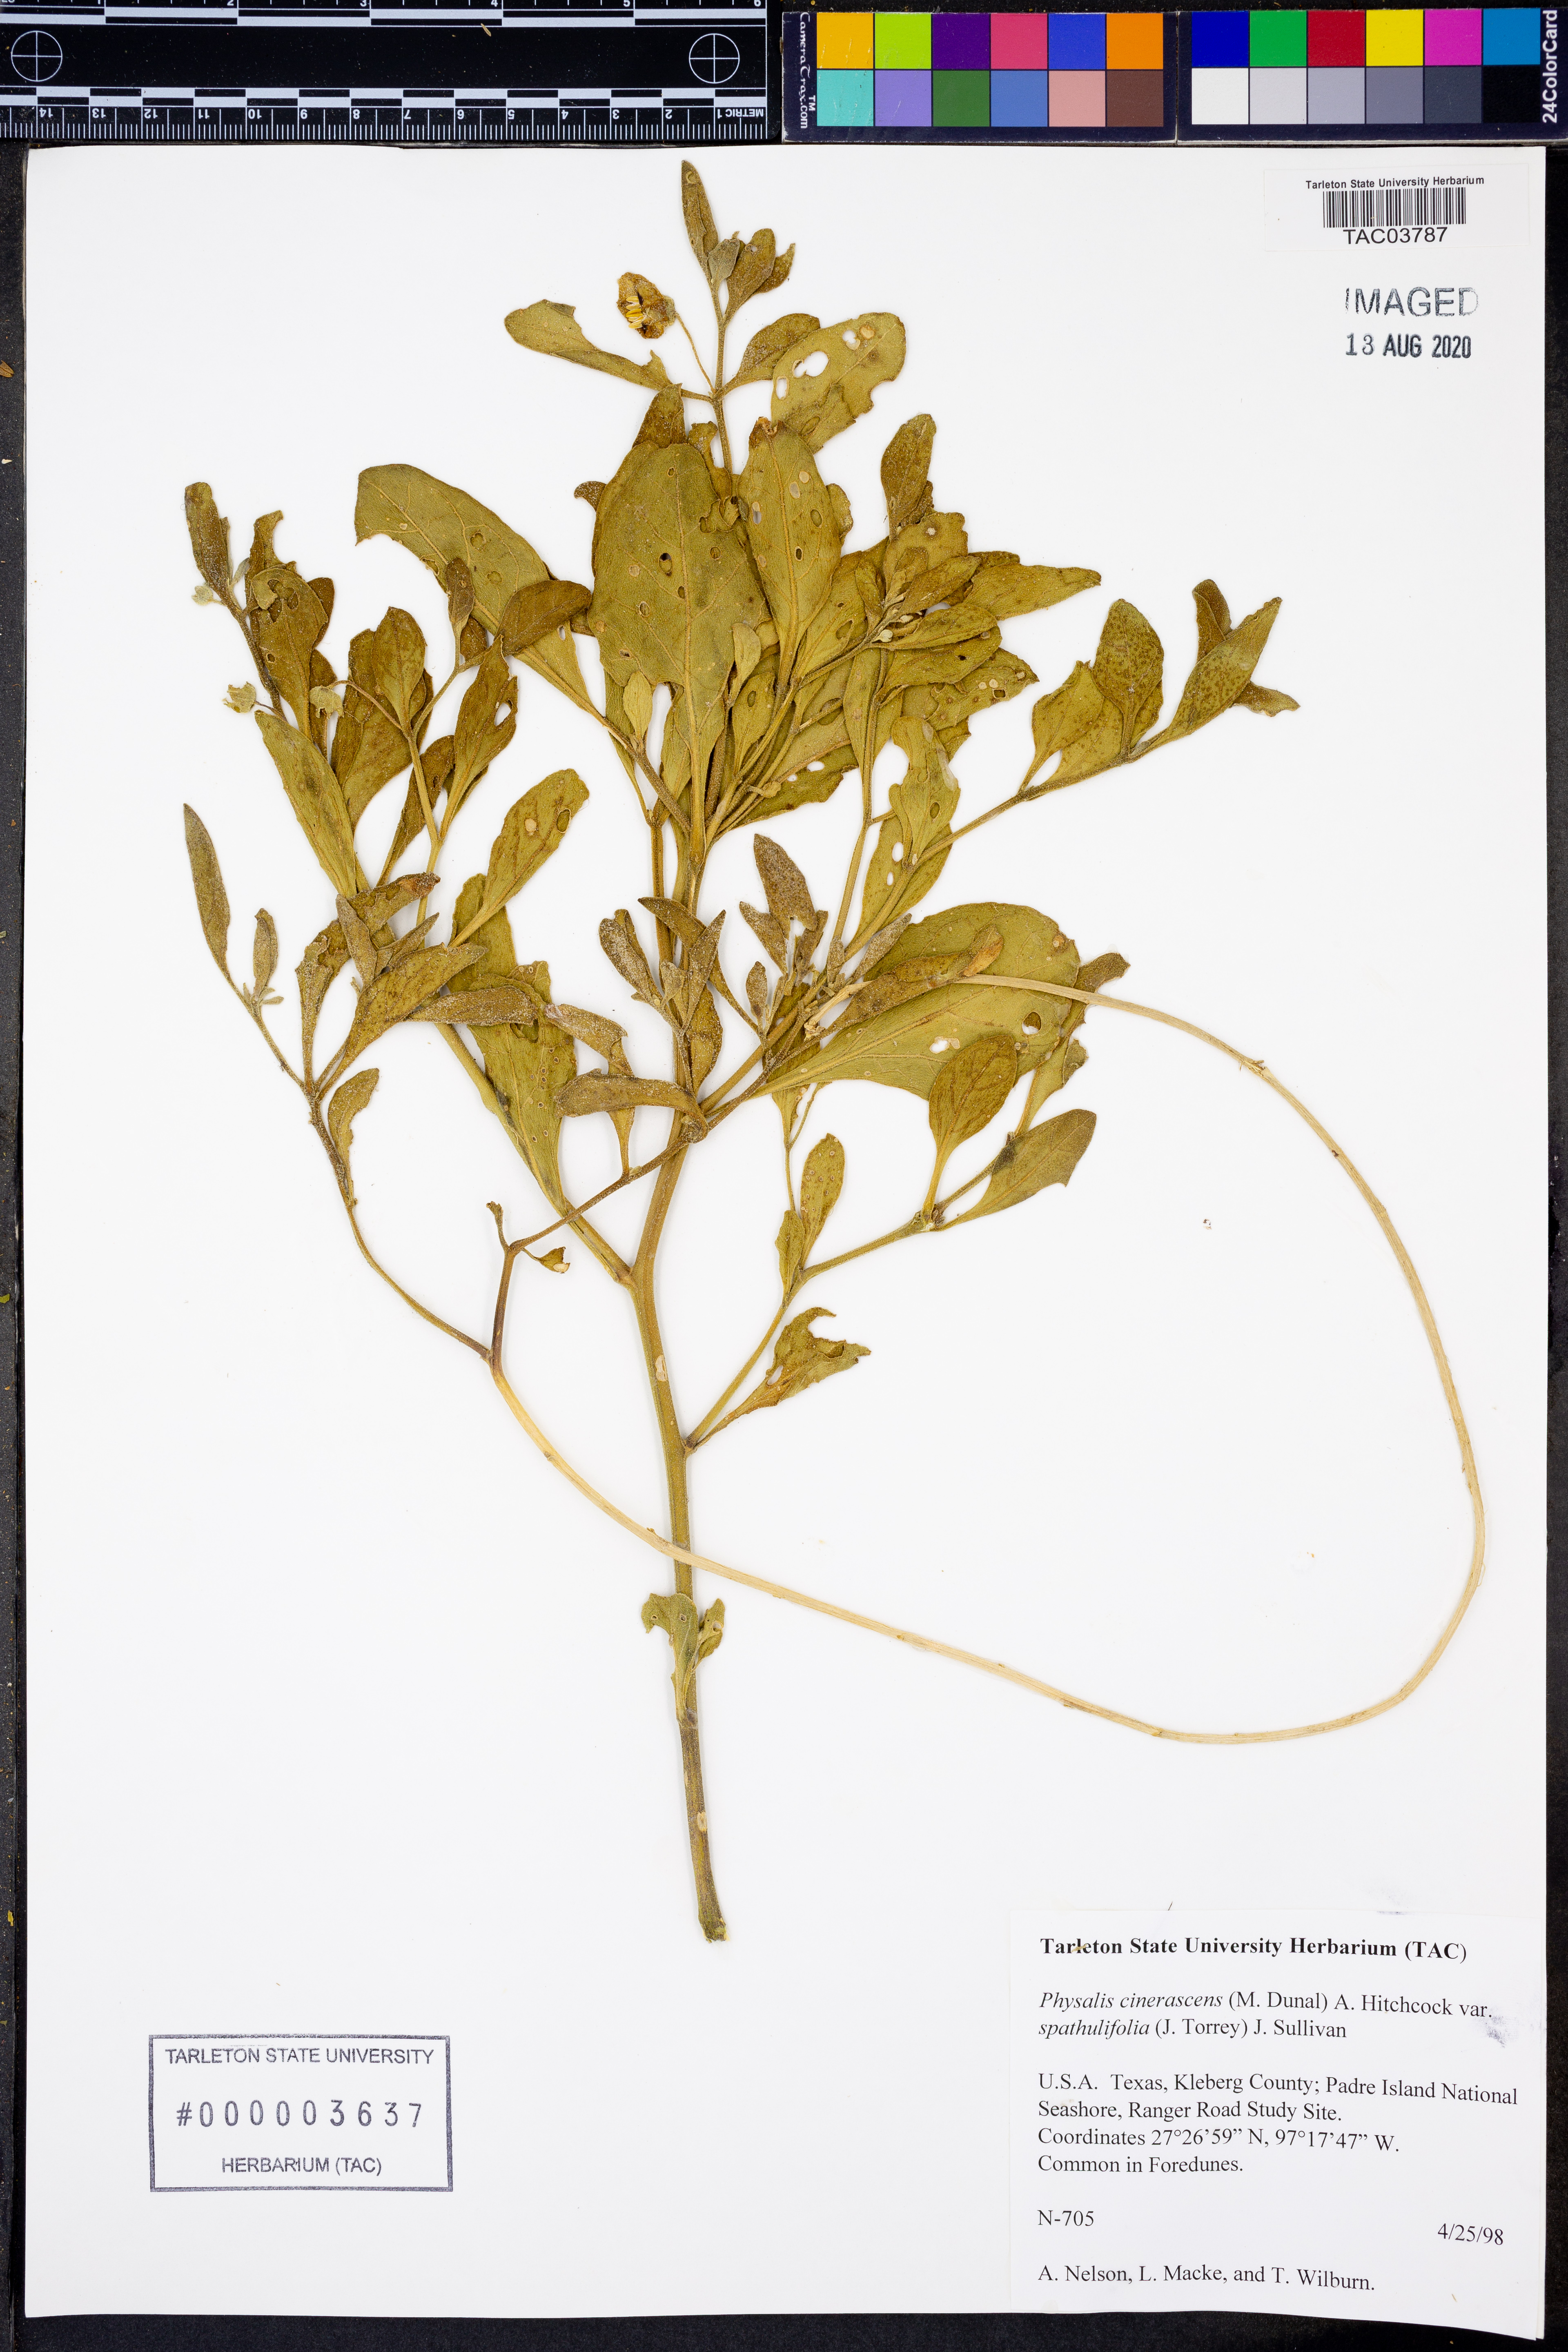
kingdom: Plantae
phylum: Tracheophyta
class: Magnoliopsida
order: Solanales
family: Solanaceae
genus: Physalis
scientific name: Physalis cinerascens
